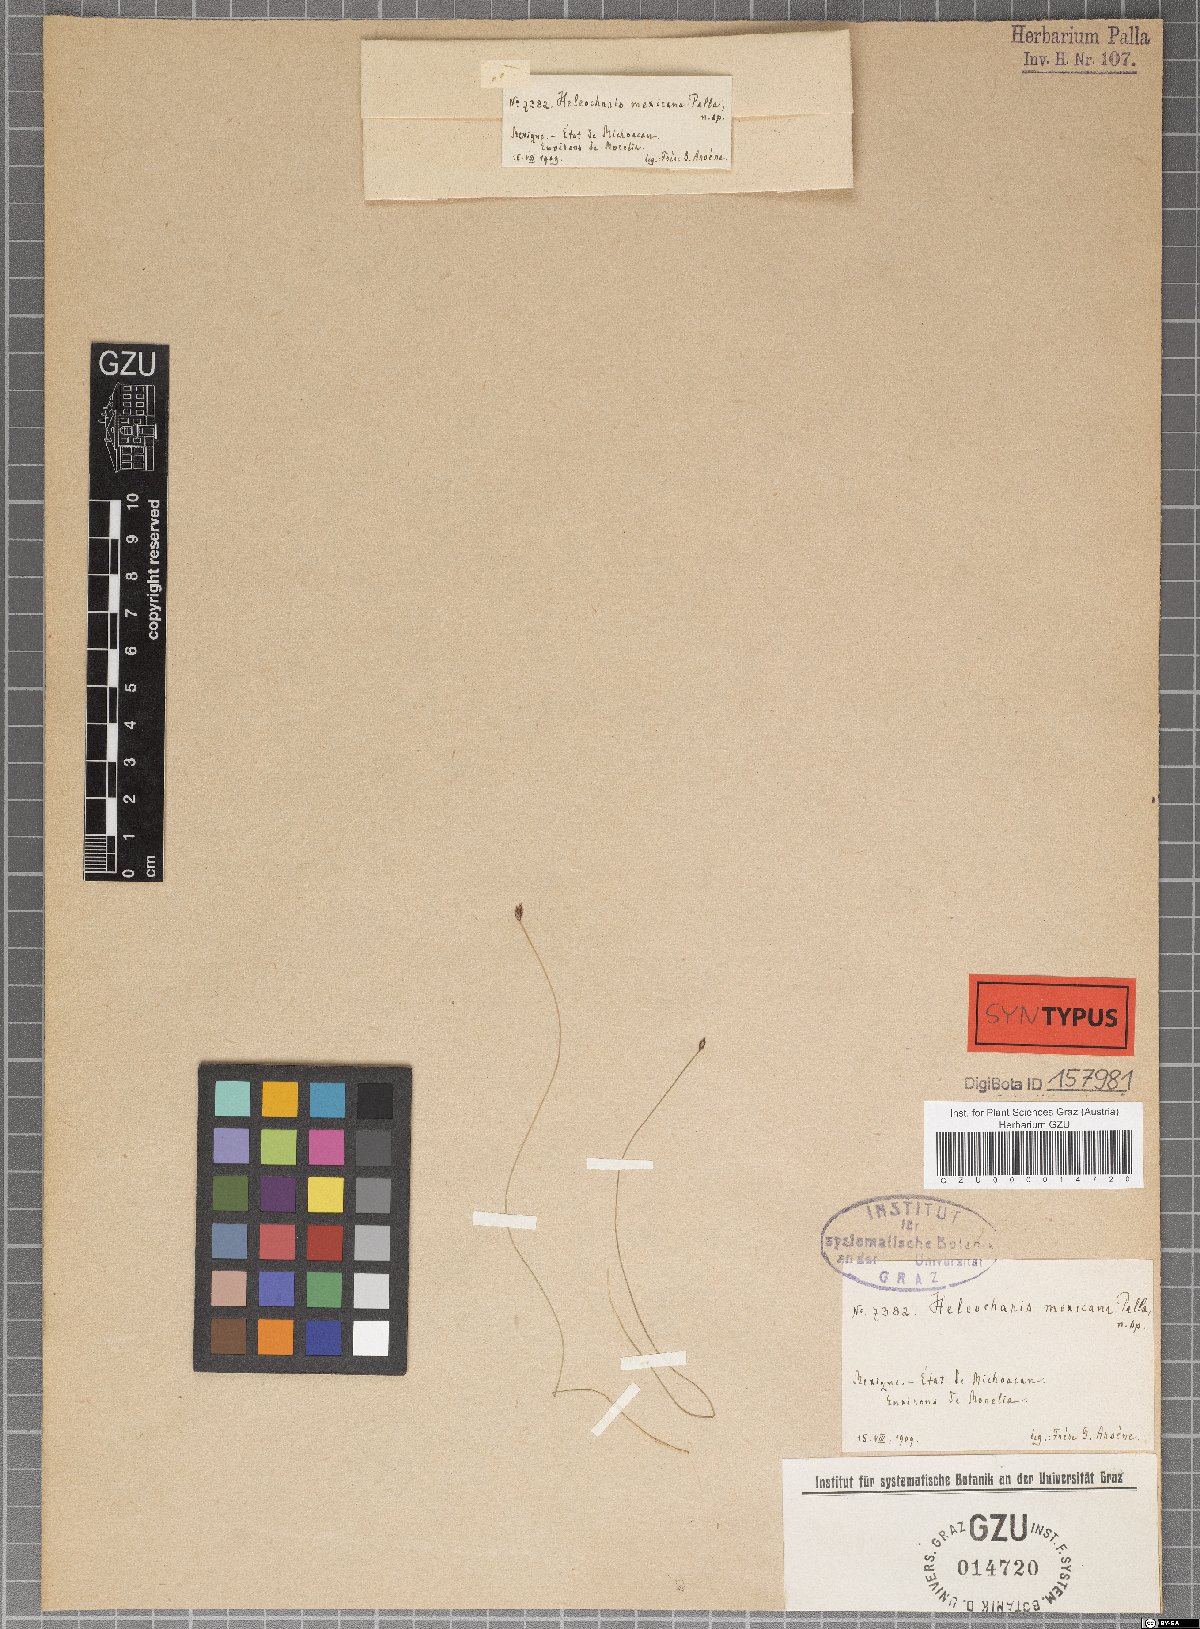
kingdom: Plantae
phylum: Tracheophyta
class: Liliopsida
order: Poales
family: Cyperaceae
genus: Eleocharis
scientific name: Eleocharis elegans
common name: Elegant spike-rush
